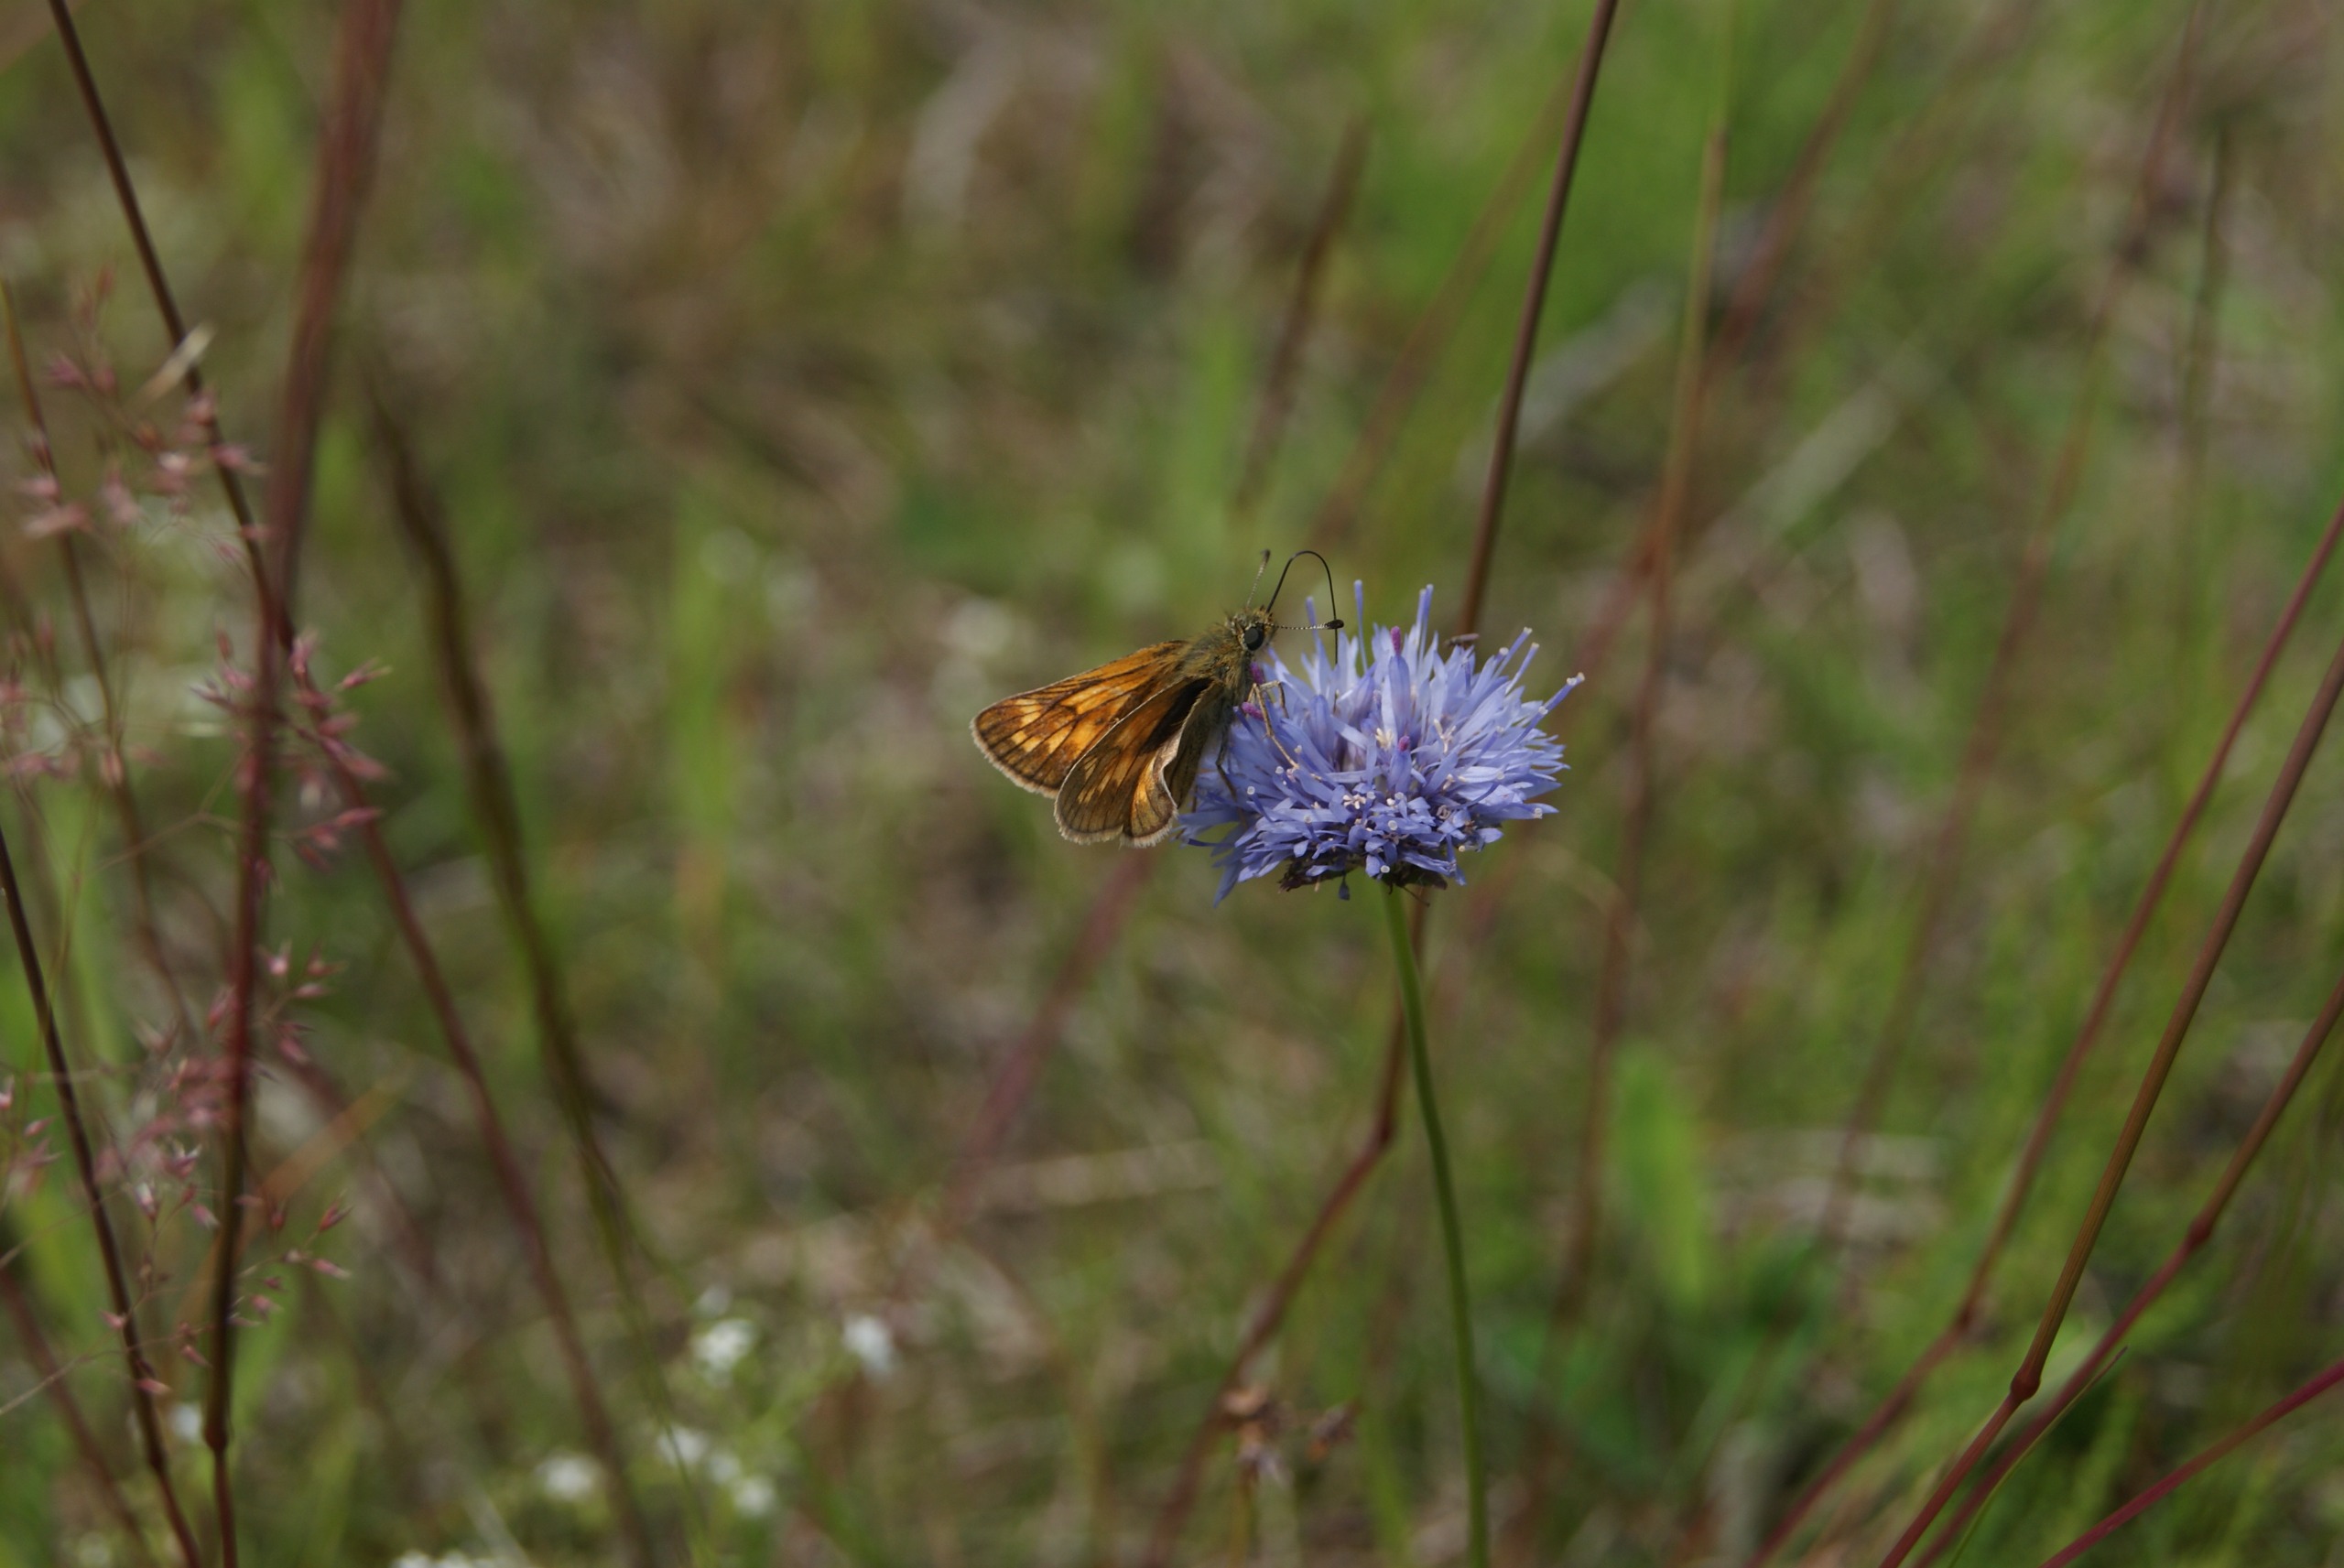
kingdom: Animalia
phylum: Arthropoda
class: Insecta
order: Lepidoptera
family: Hesperiidae
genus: Ochlodes
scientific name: Ochlodes venata
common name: Stor bredpande
